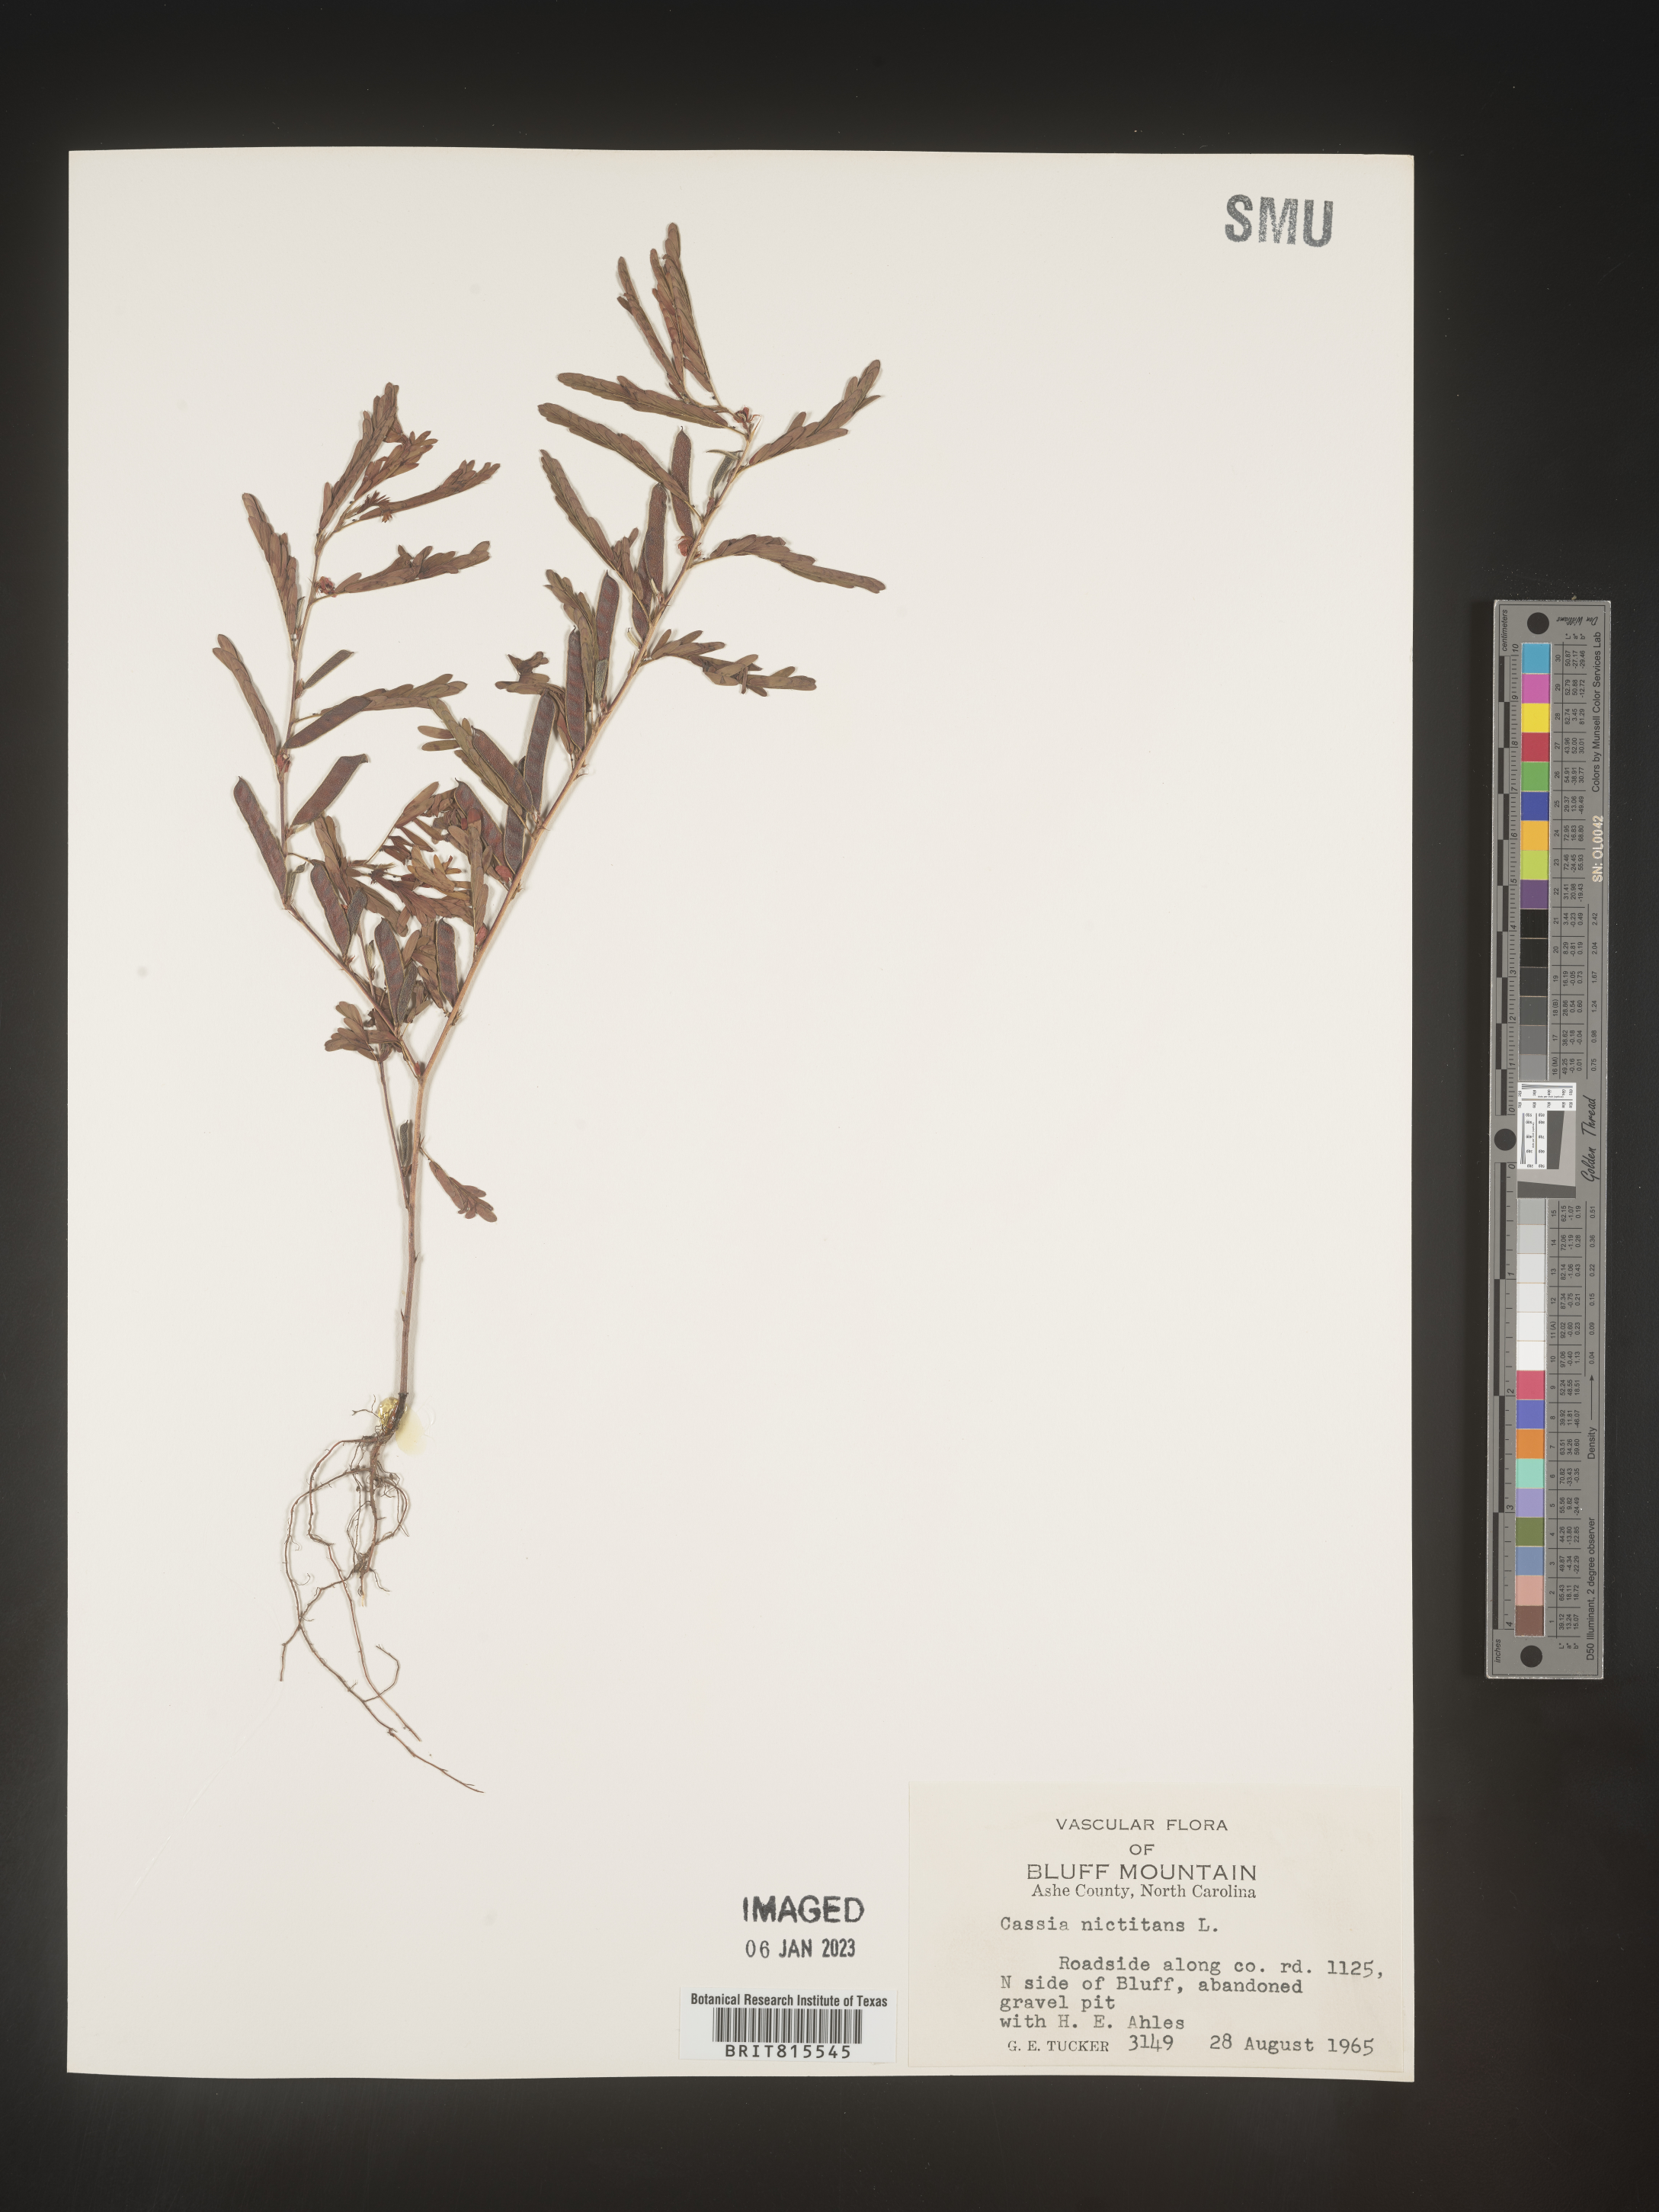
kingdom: Plantae
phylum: Tracheophyta
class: Magnoliopsida
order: Fabales
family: Fabaceae
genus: Chamaecrista
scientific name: Chamaecrista nictitans
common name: Sensitive cassia
